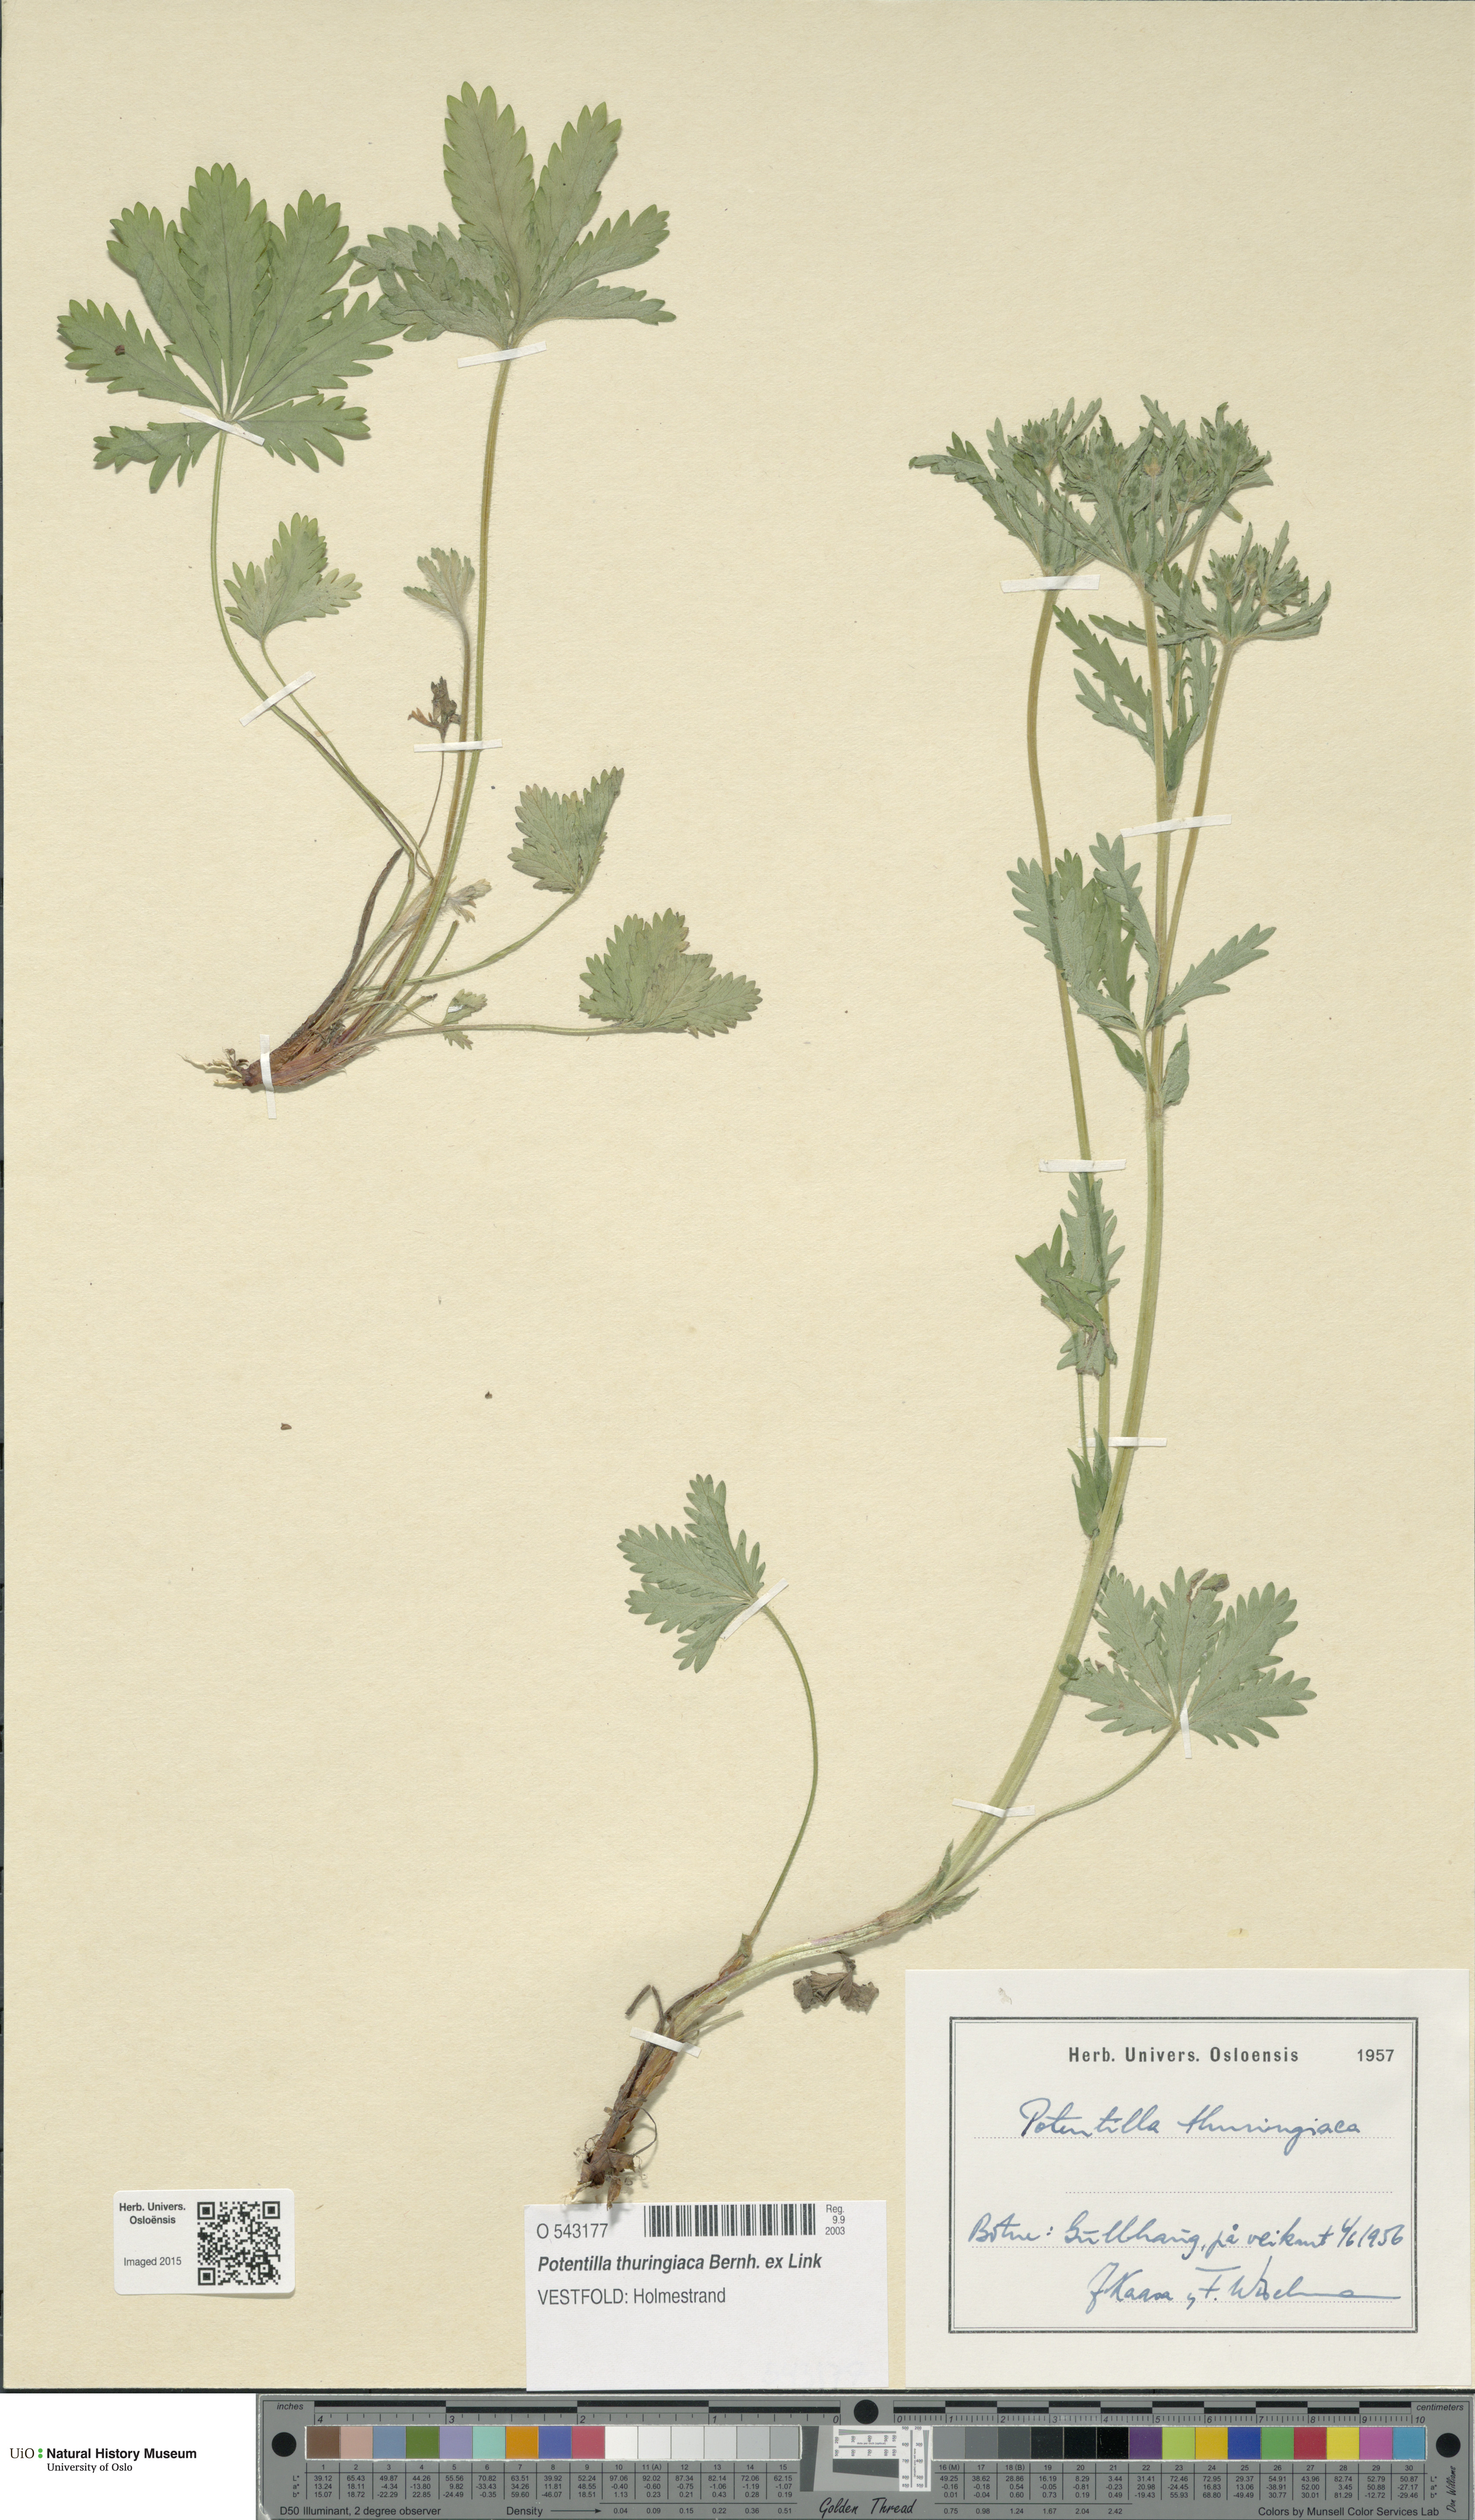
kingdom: Plantae
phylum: Tracheophyta
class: Magnoliopsida
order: Rosales
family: Rosaceae
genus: Potentilla
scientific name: Potentilla thuringiaca
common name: European cinquefoil
